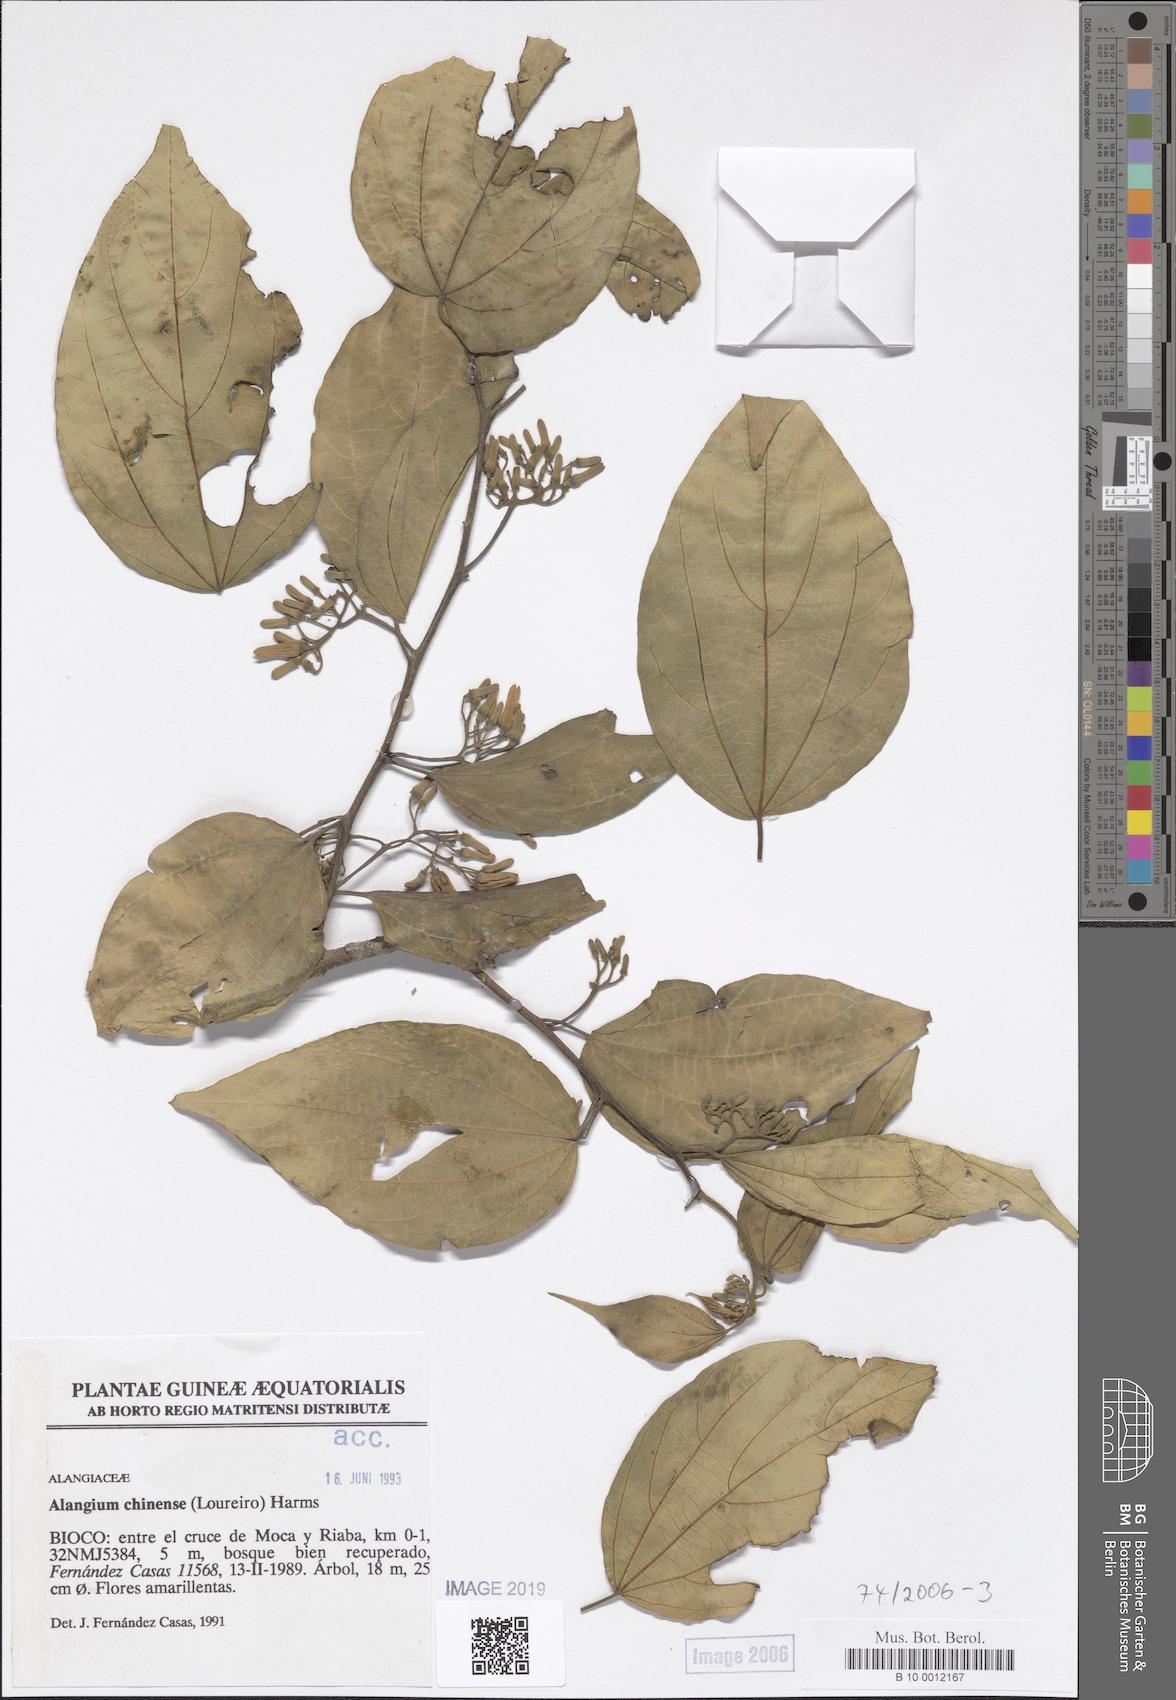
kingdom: Plantae
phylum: Tracheophyta
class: Magnoliopsida
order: Cornales
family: Cornaceae
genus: Alangium
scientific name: Alangium chinense
